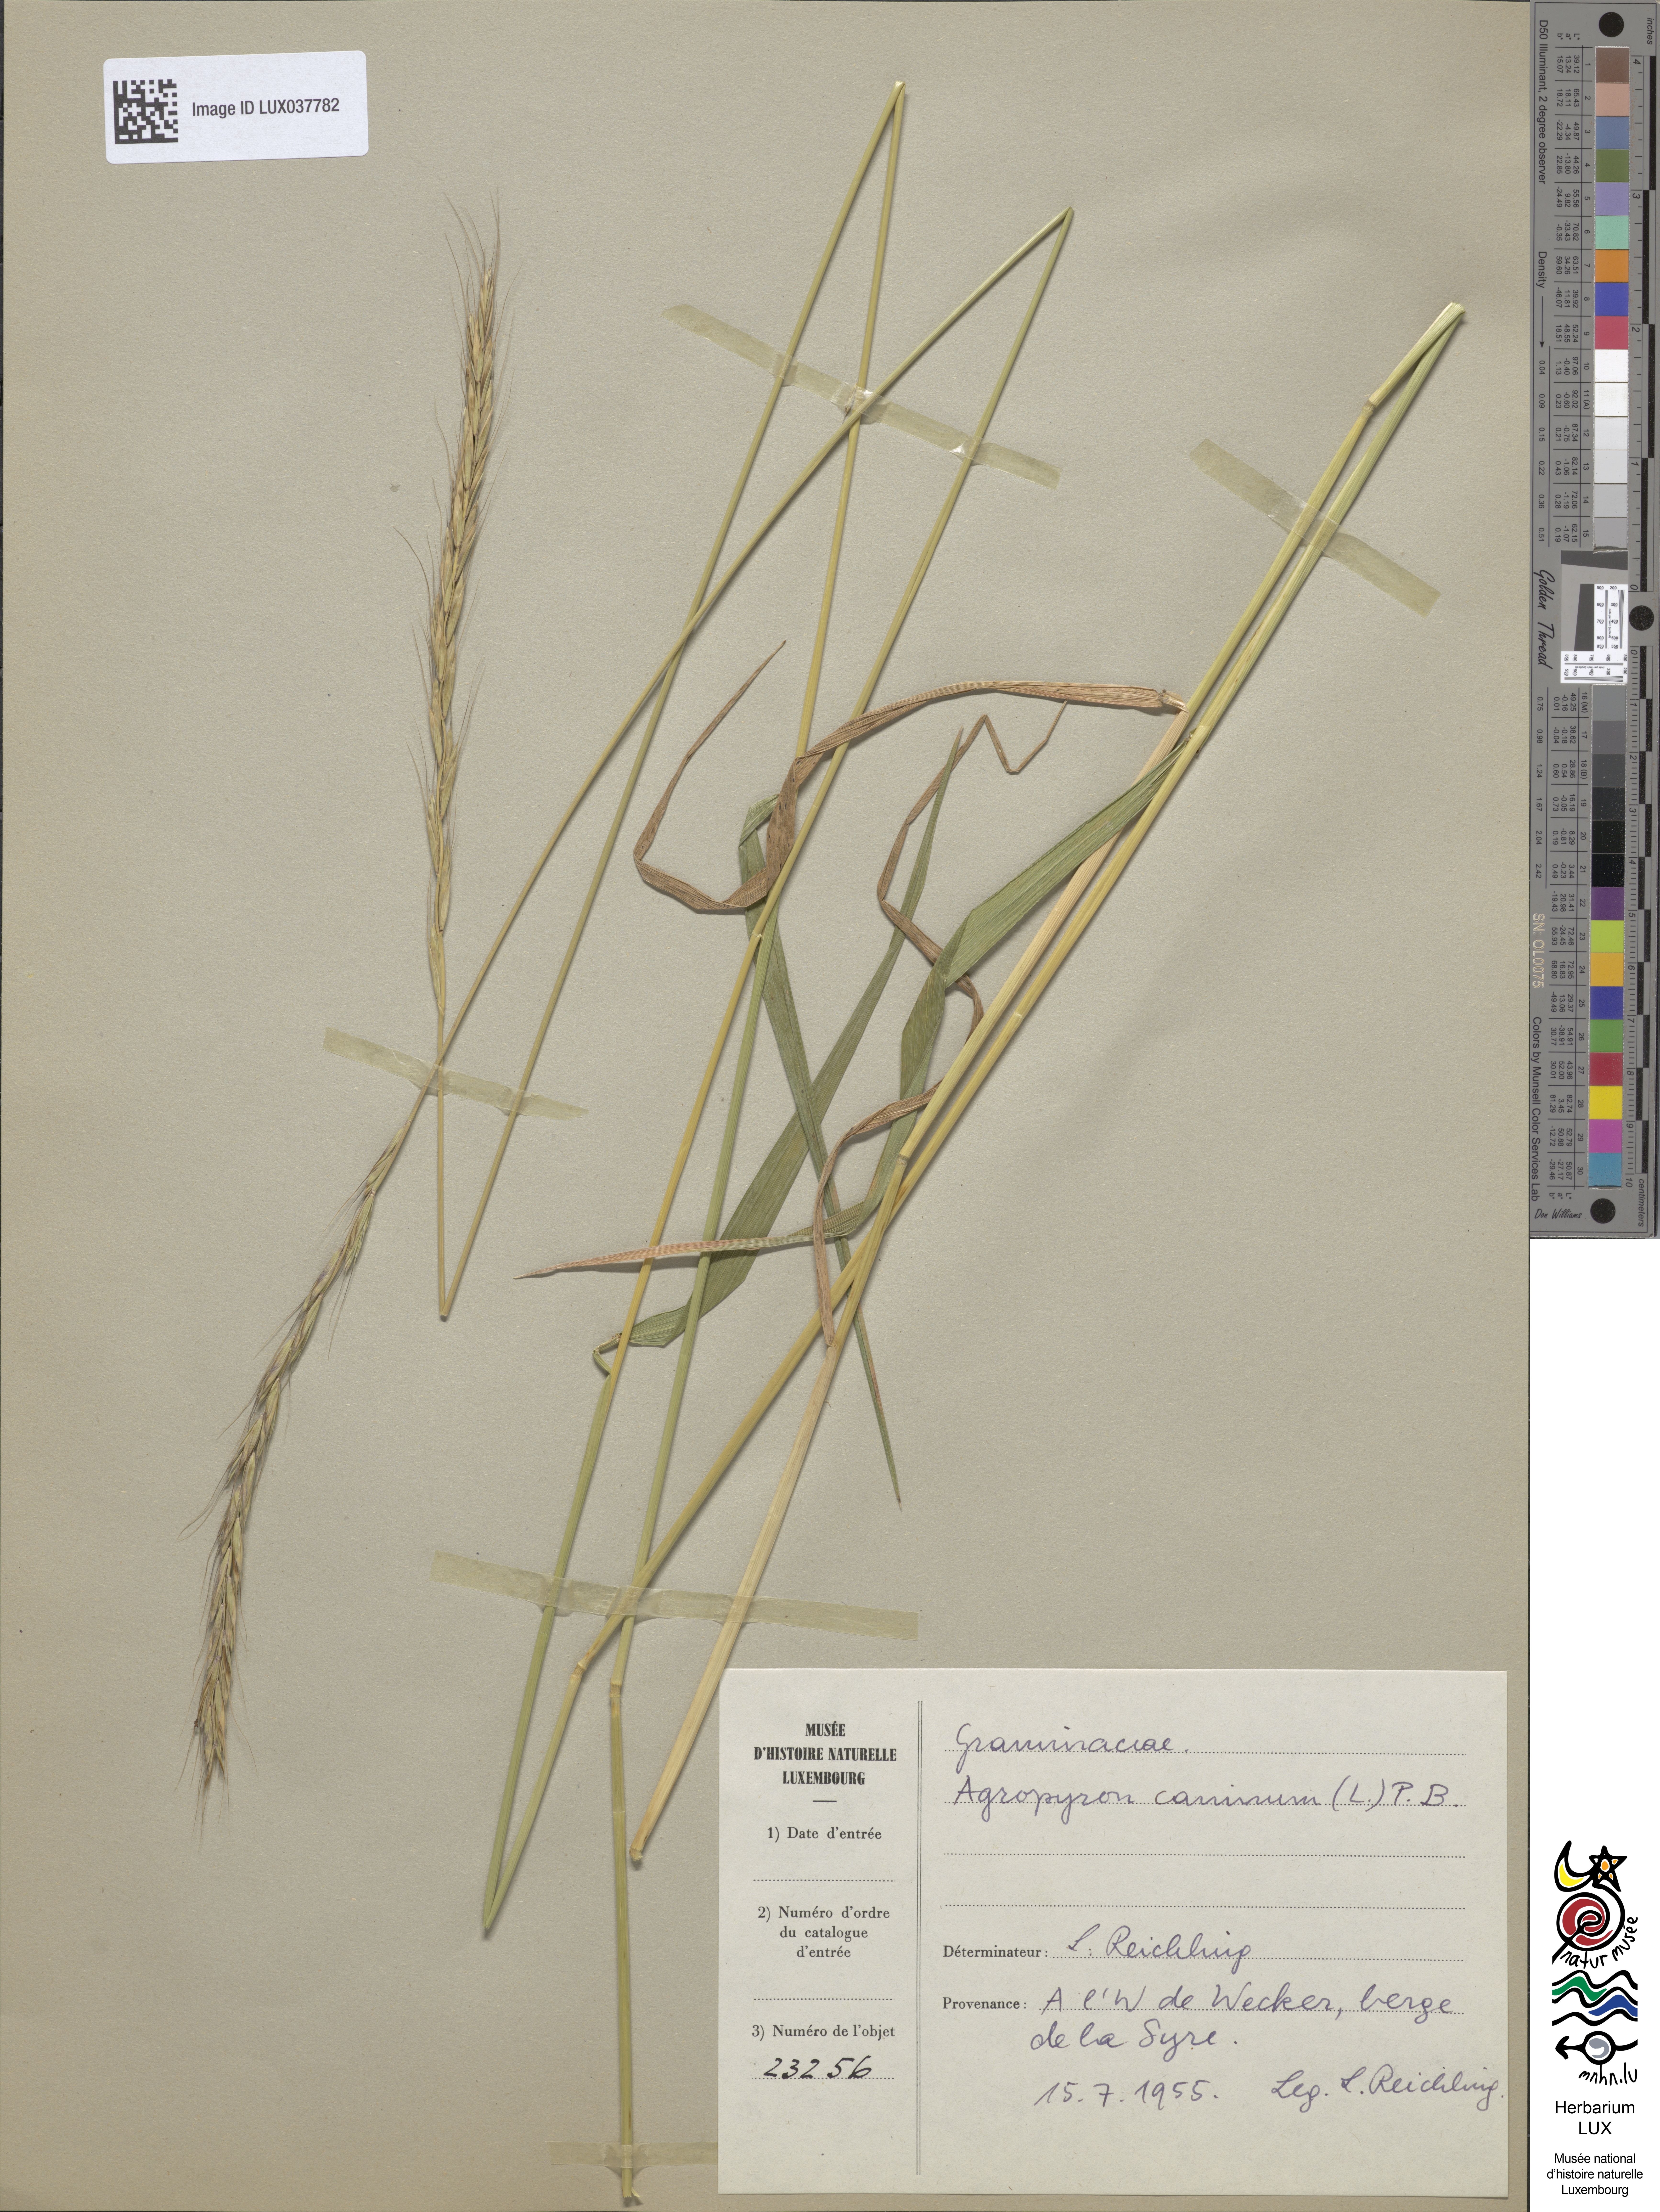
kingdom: Plantae
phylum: Tracheophyta
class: Liliopsida
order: Poales
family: Poaceae
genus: Elymus
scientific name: Elymus caninus
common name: Bearded couch
